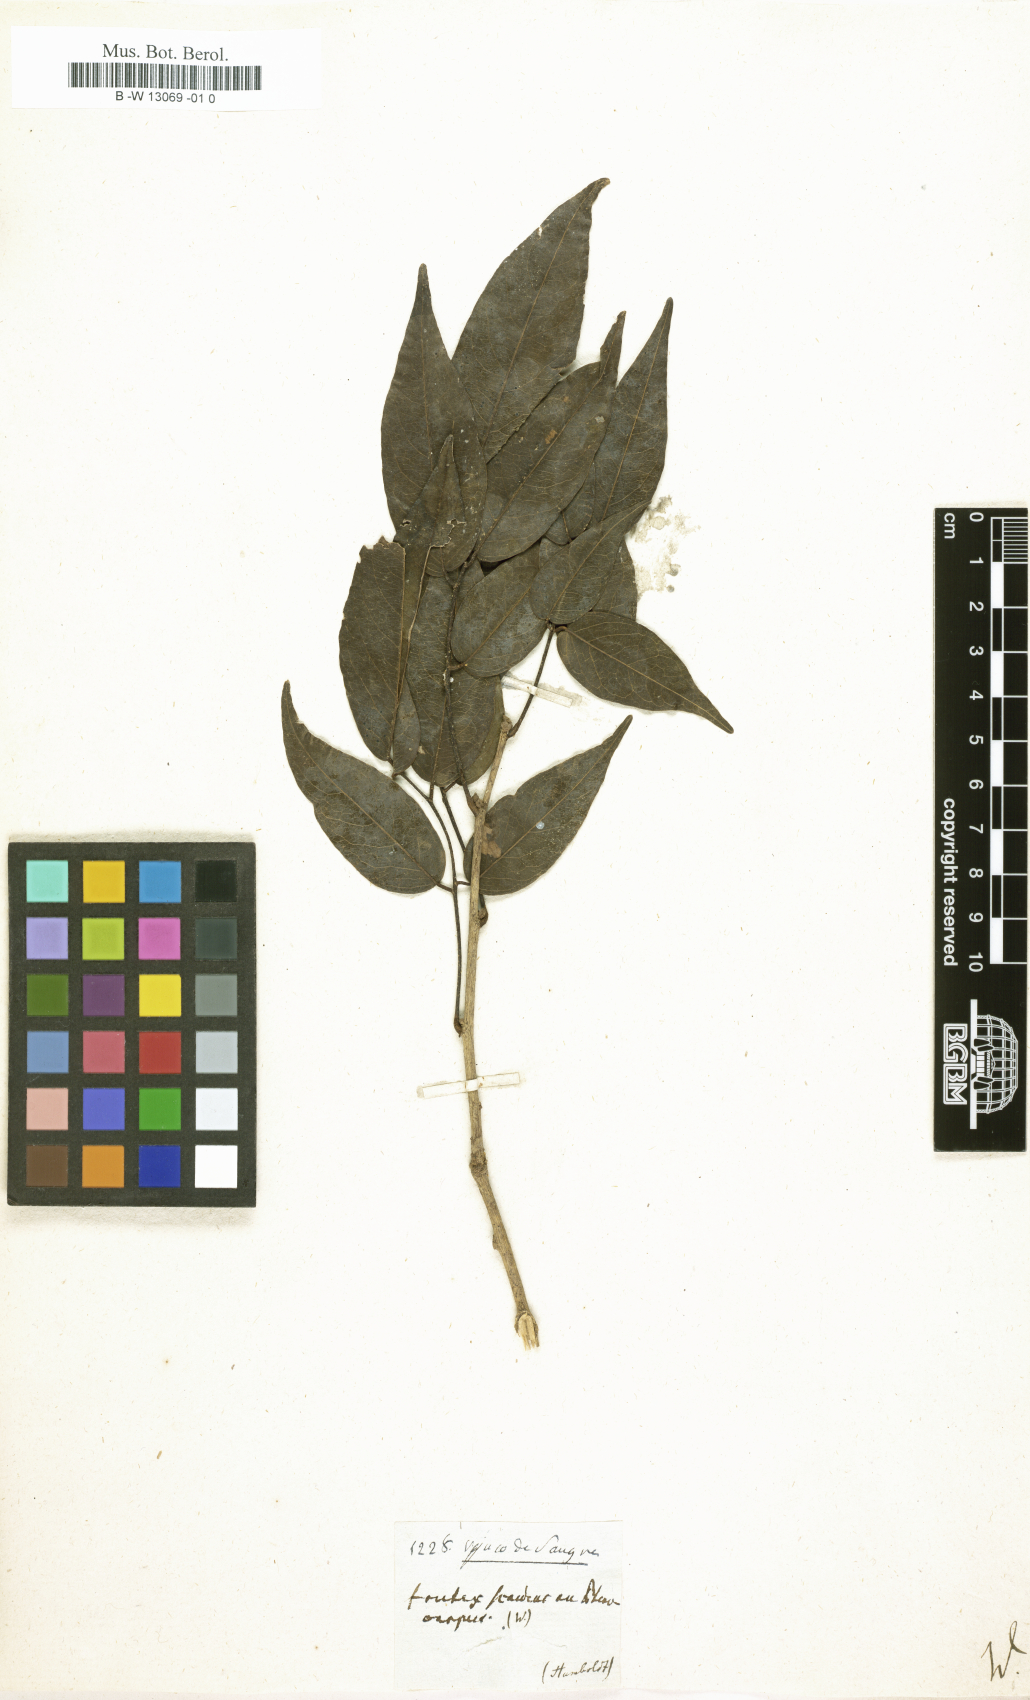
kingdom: Plantae
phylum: Tracheophyta
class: Magnoliopsida
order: Fabales
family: Fabaceae
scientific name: Fabaceae
